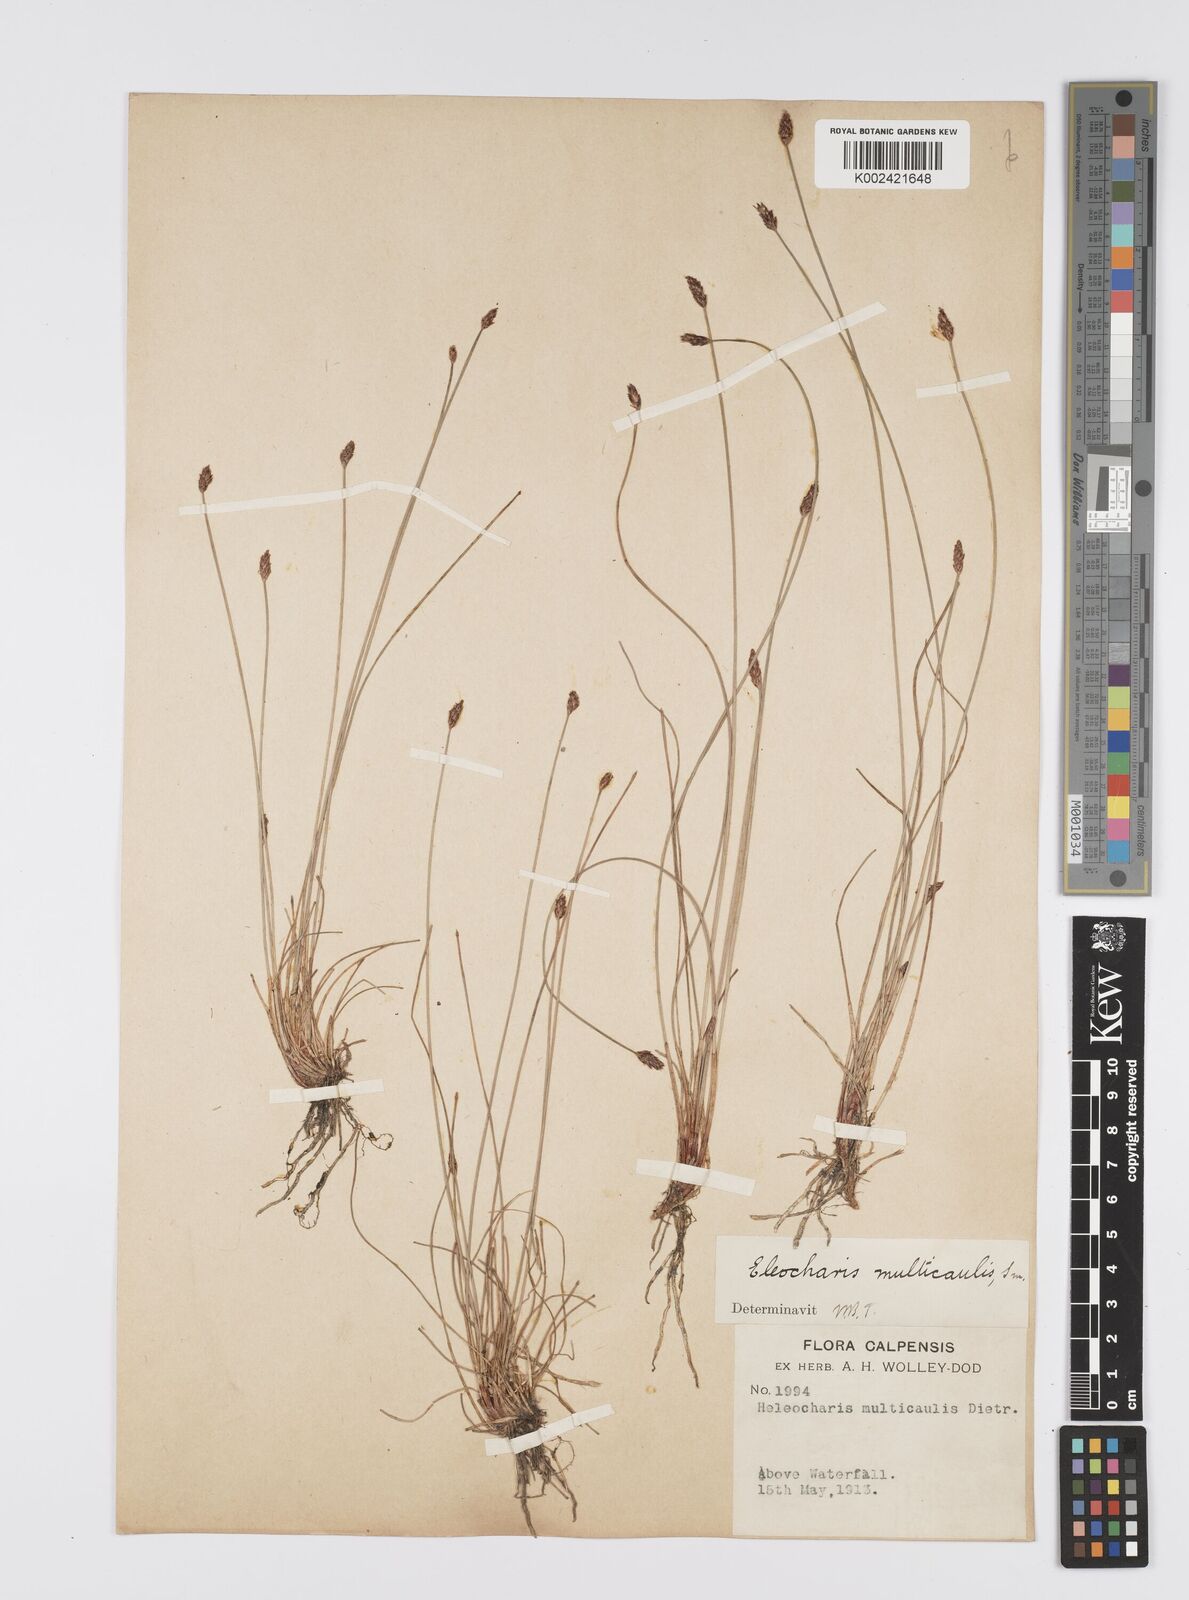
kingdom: Plantae
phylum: Tracheophyta
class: Liliopsida
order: Poales
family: Cyperaceae
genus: Eleocharis
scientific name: Eleocharis multicaulis
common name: Many-stalked spike-rush
